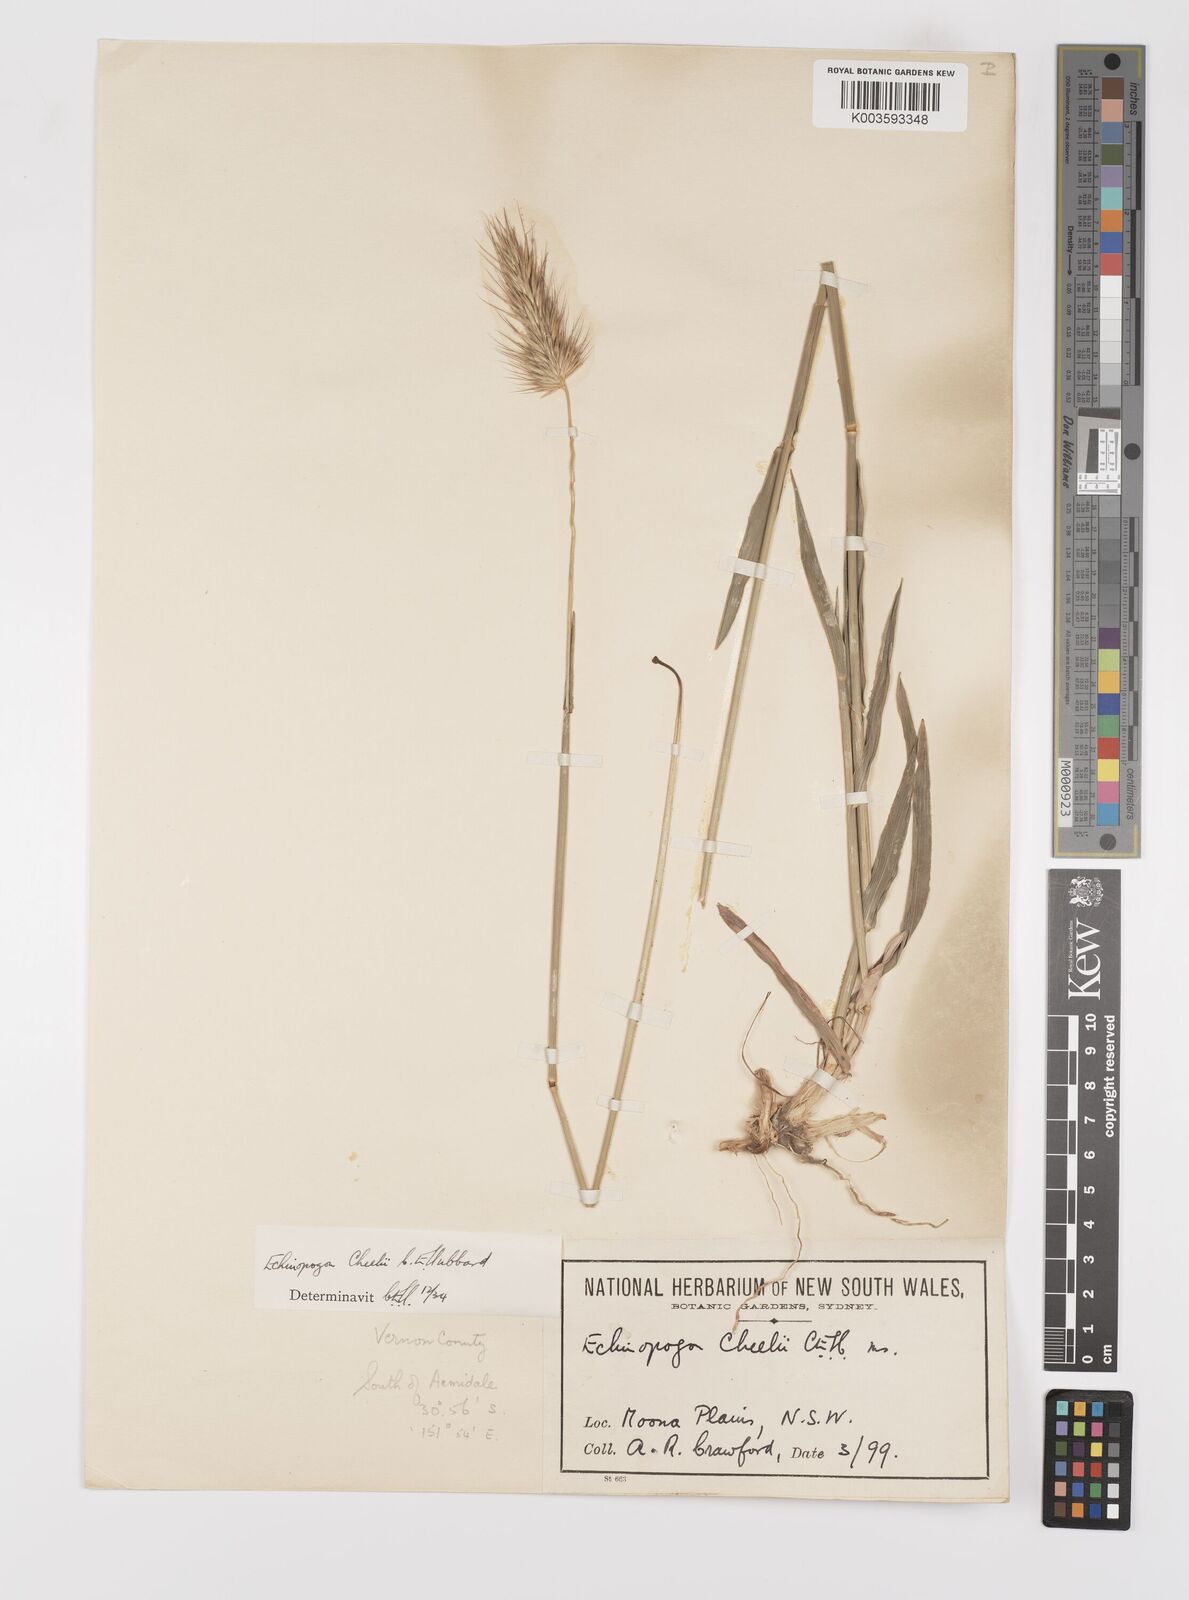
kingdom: Plantae
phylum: Tracheophyta
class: Liliopsida
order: Poales
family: Poaceae
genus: Echinopogon
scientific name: Echinopogon cheelii
